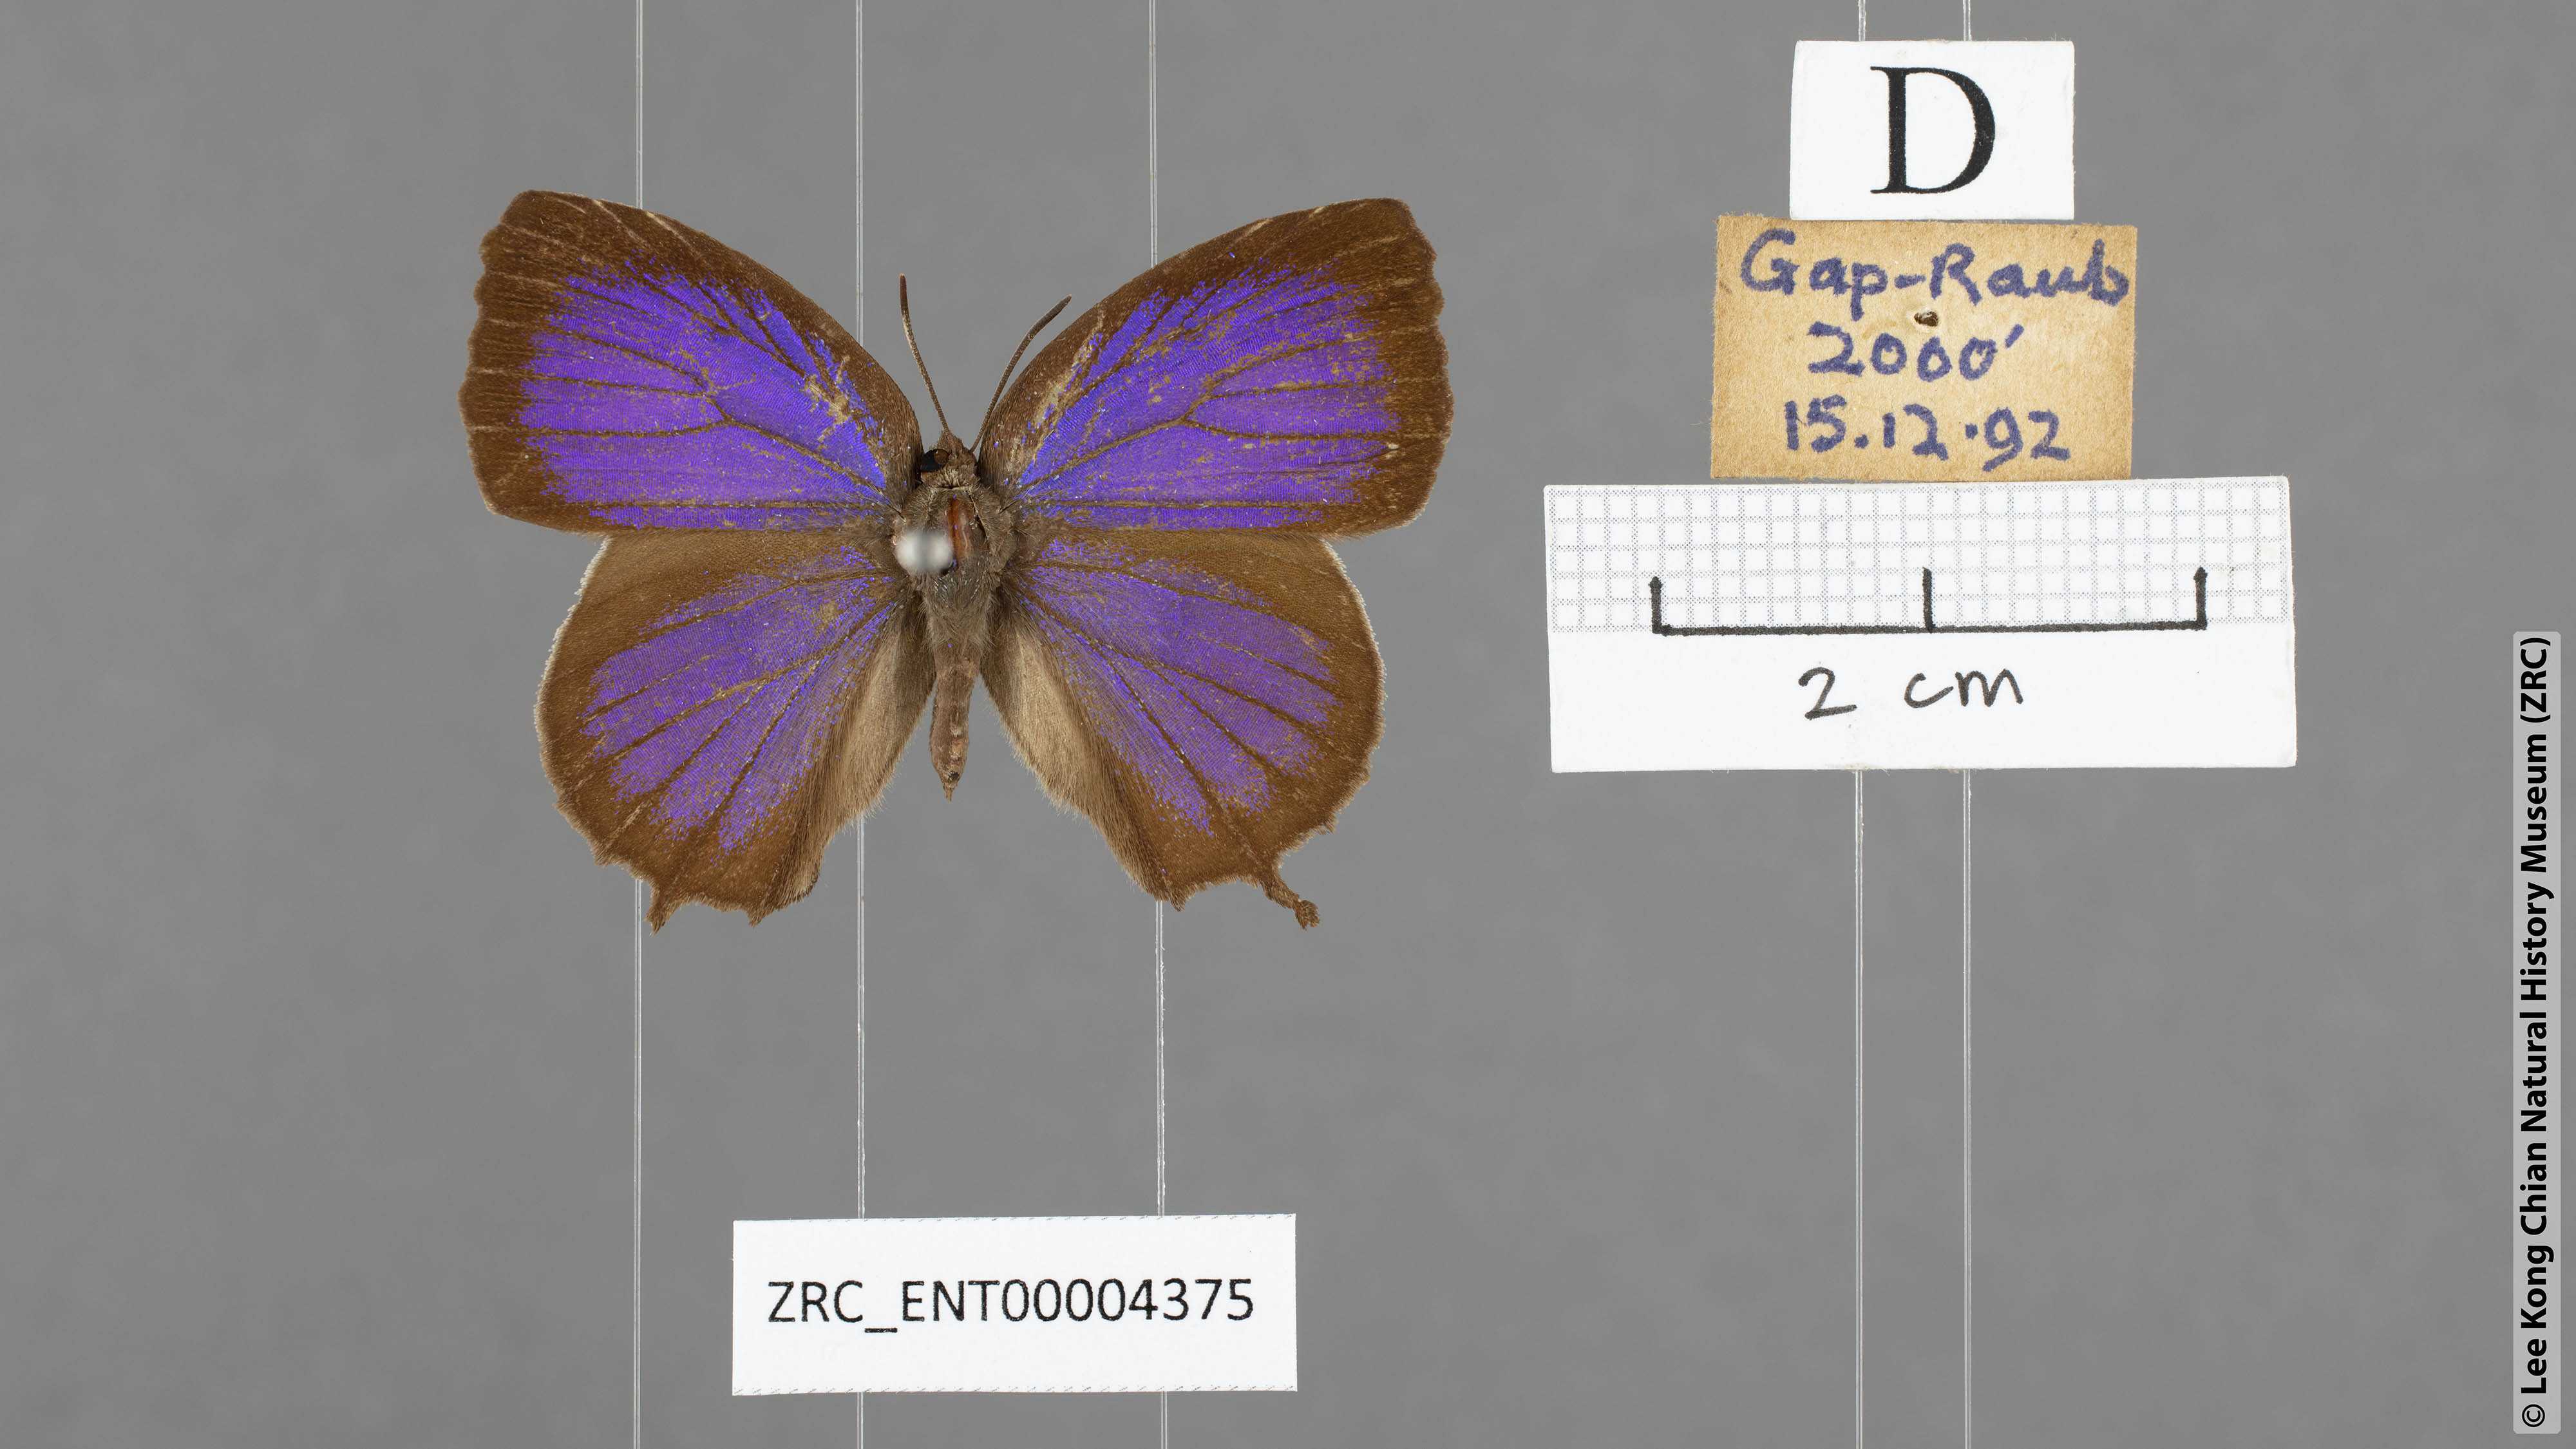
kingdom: Animalia
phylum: Arthropoda
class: Insecta
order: Lepidoptera
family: Lycaenidae
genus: Mahathala
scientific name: Mahathala ameria
